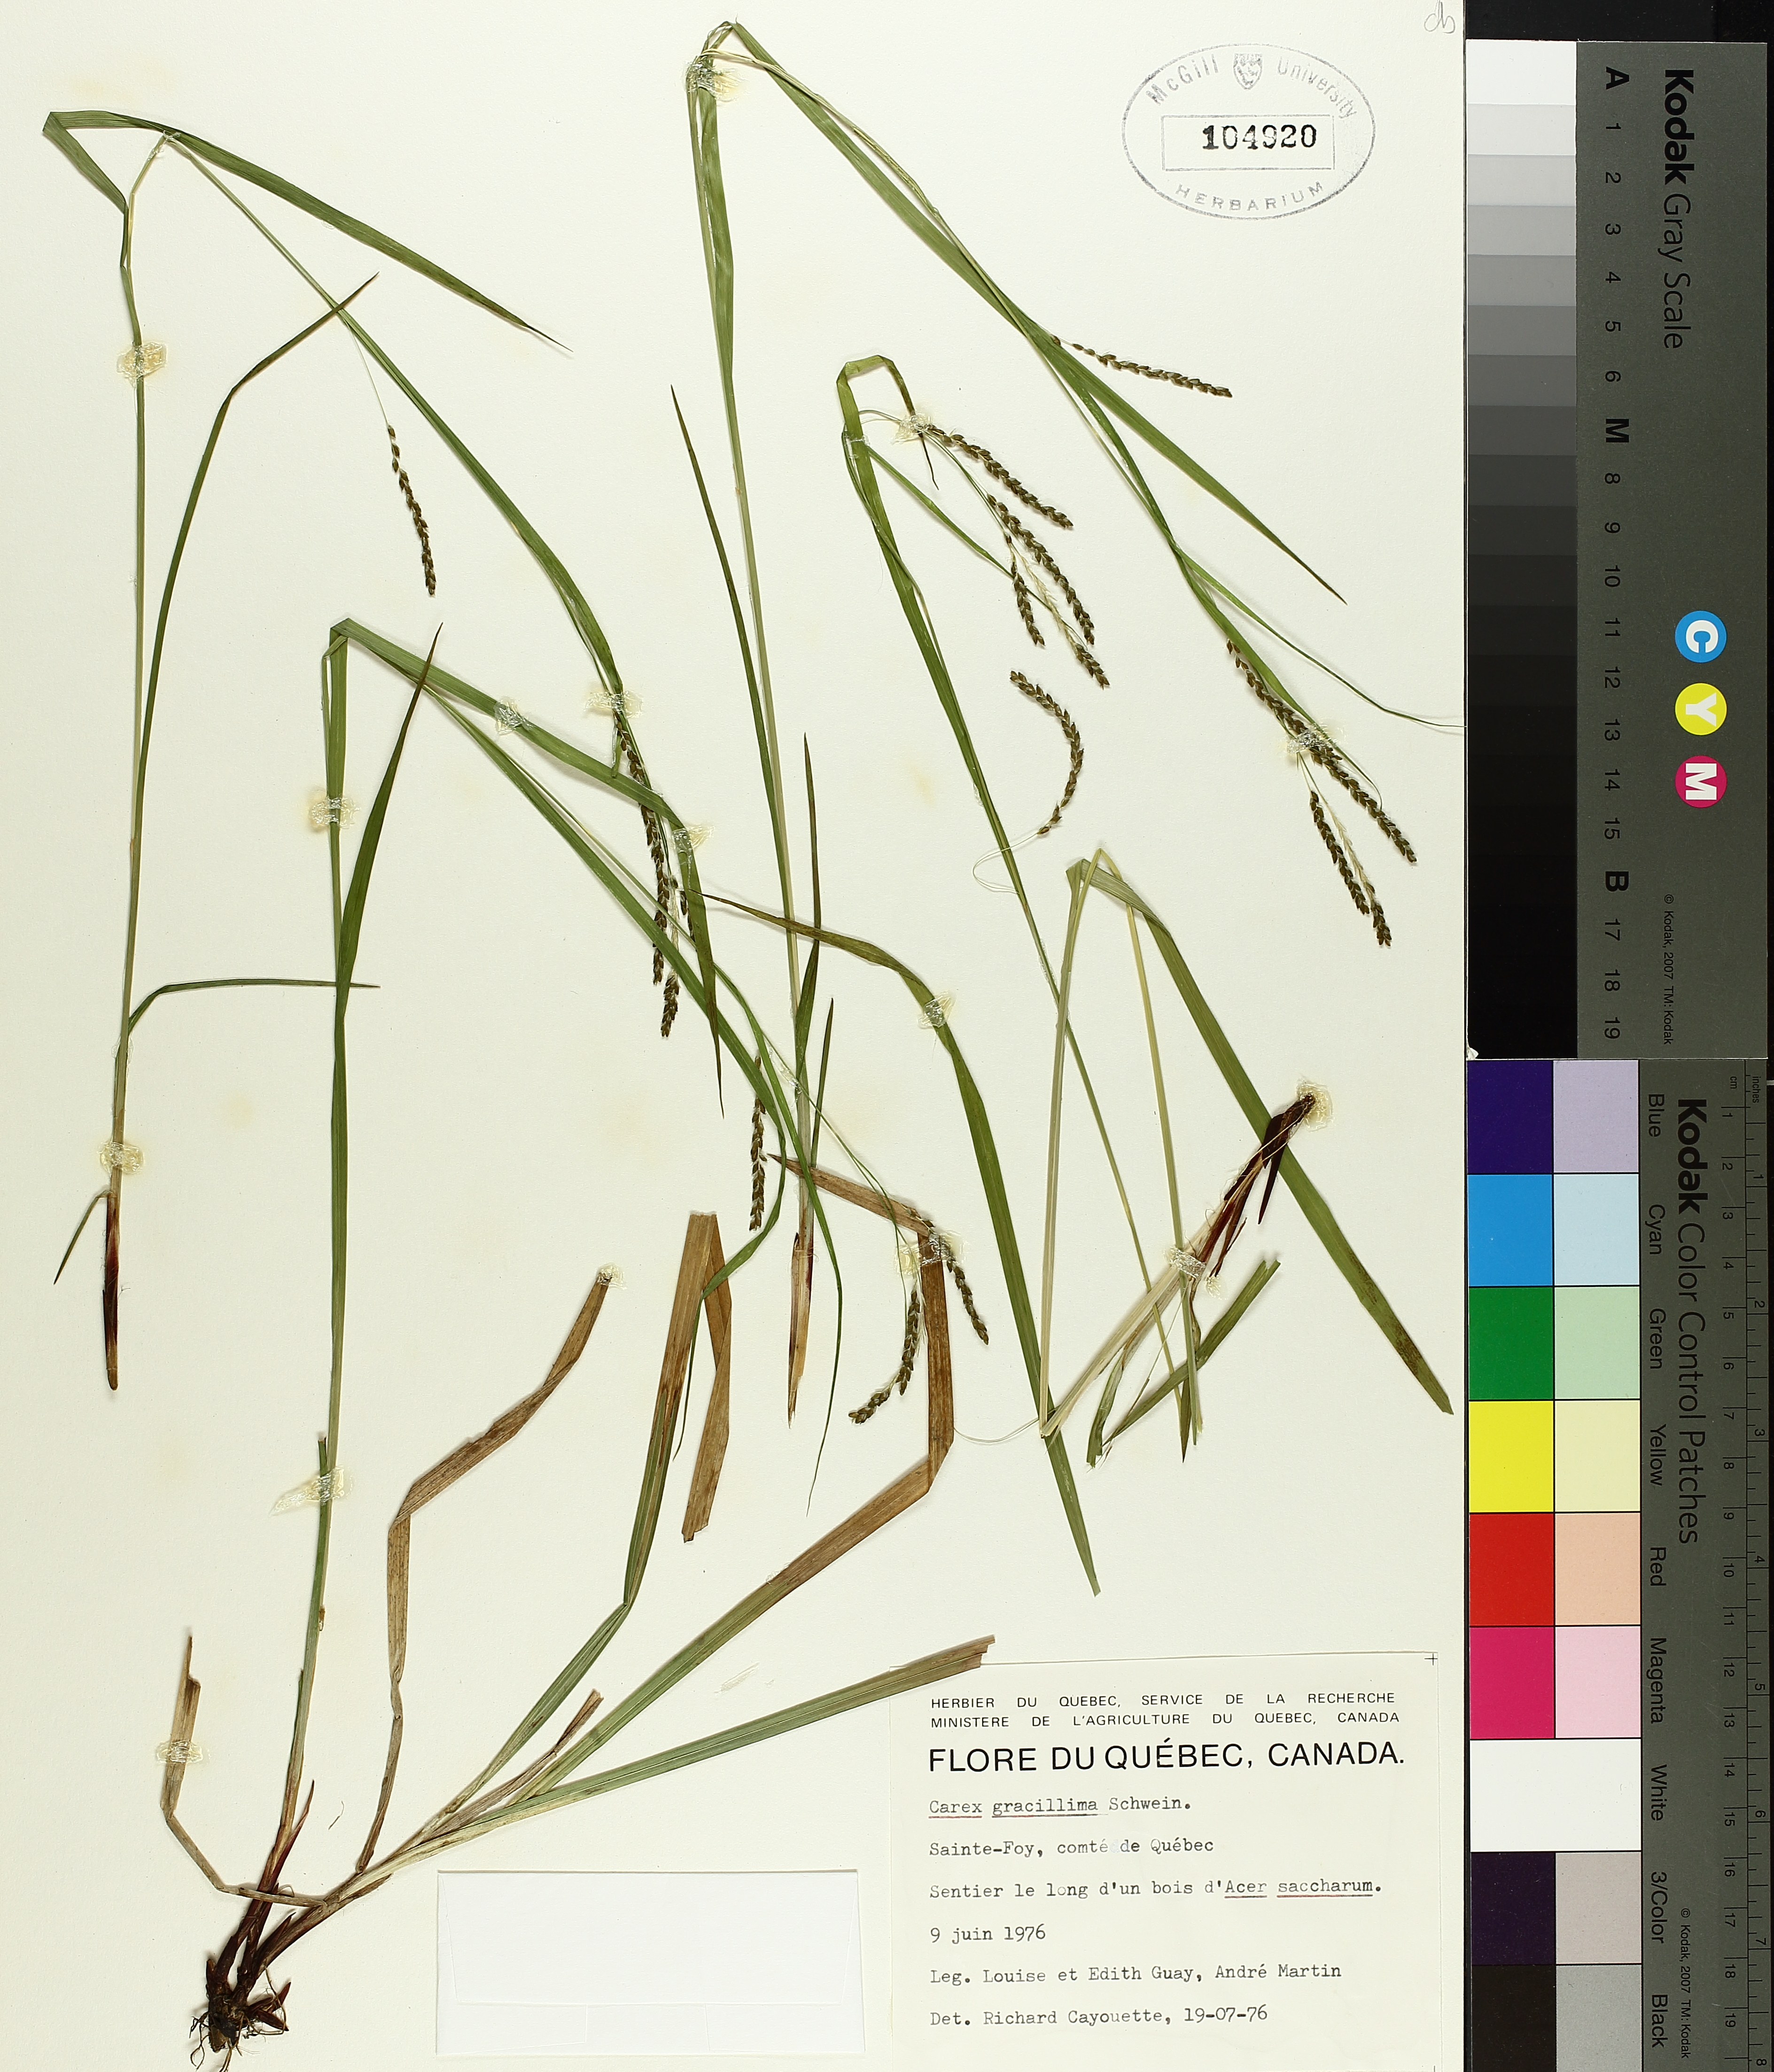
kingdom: Plantae
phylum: Tracheophyta
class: Liliopsida
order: Poales
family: Cyperaceae
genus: Carex
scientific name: Carex gracillima
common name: Graceful sedge
